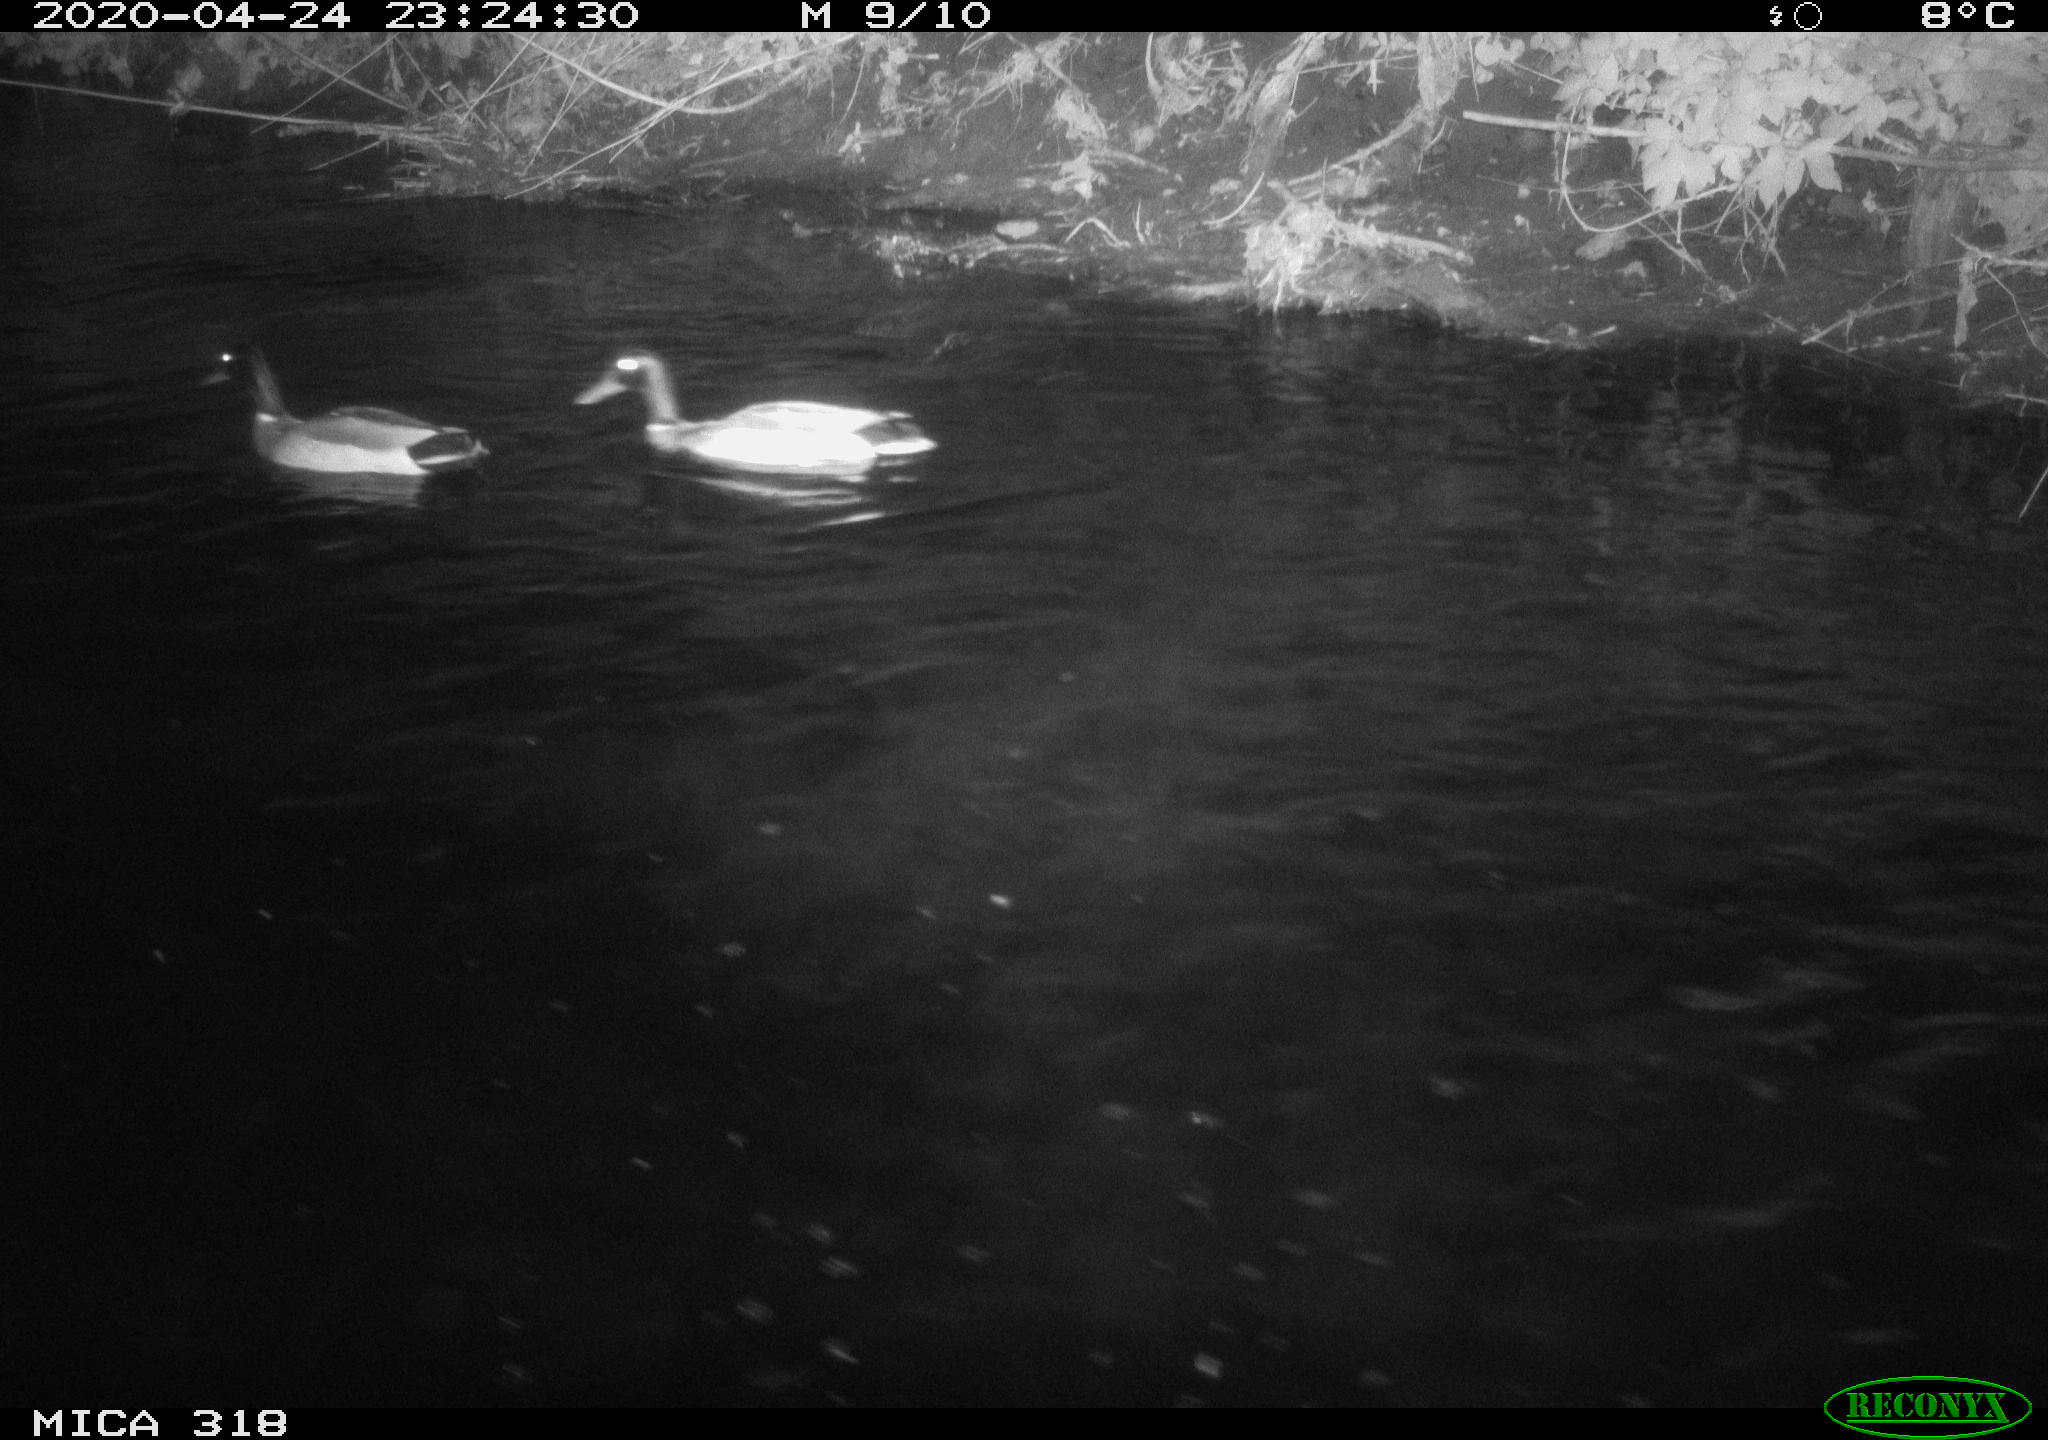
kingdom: Animalia
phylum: Chordata
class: Aves
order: Anseriformes
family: Anatidae
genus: Anas
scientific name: Anas platyrhynchos
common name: Mallard
